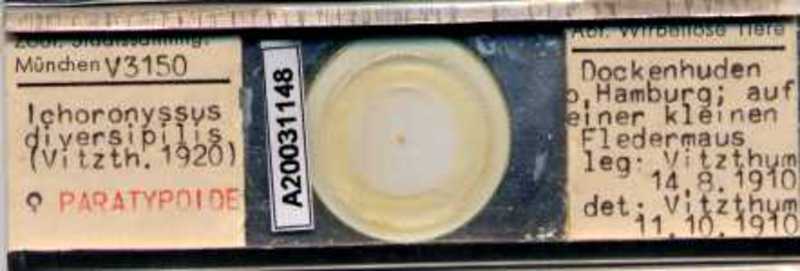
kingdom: Animalia
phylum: Arthropoda
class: Arachnida
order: Mesostigmata
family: Macronyssidae
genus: Macronyssus
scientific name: Macronyssus diversipilis
